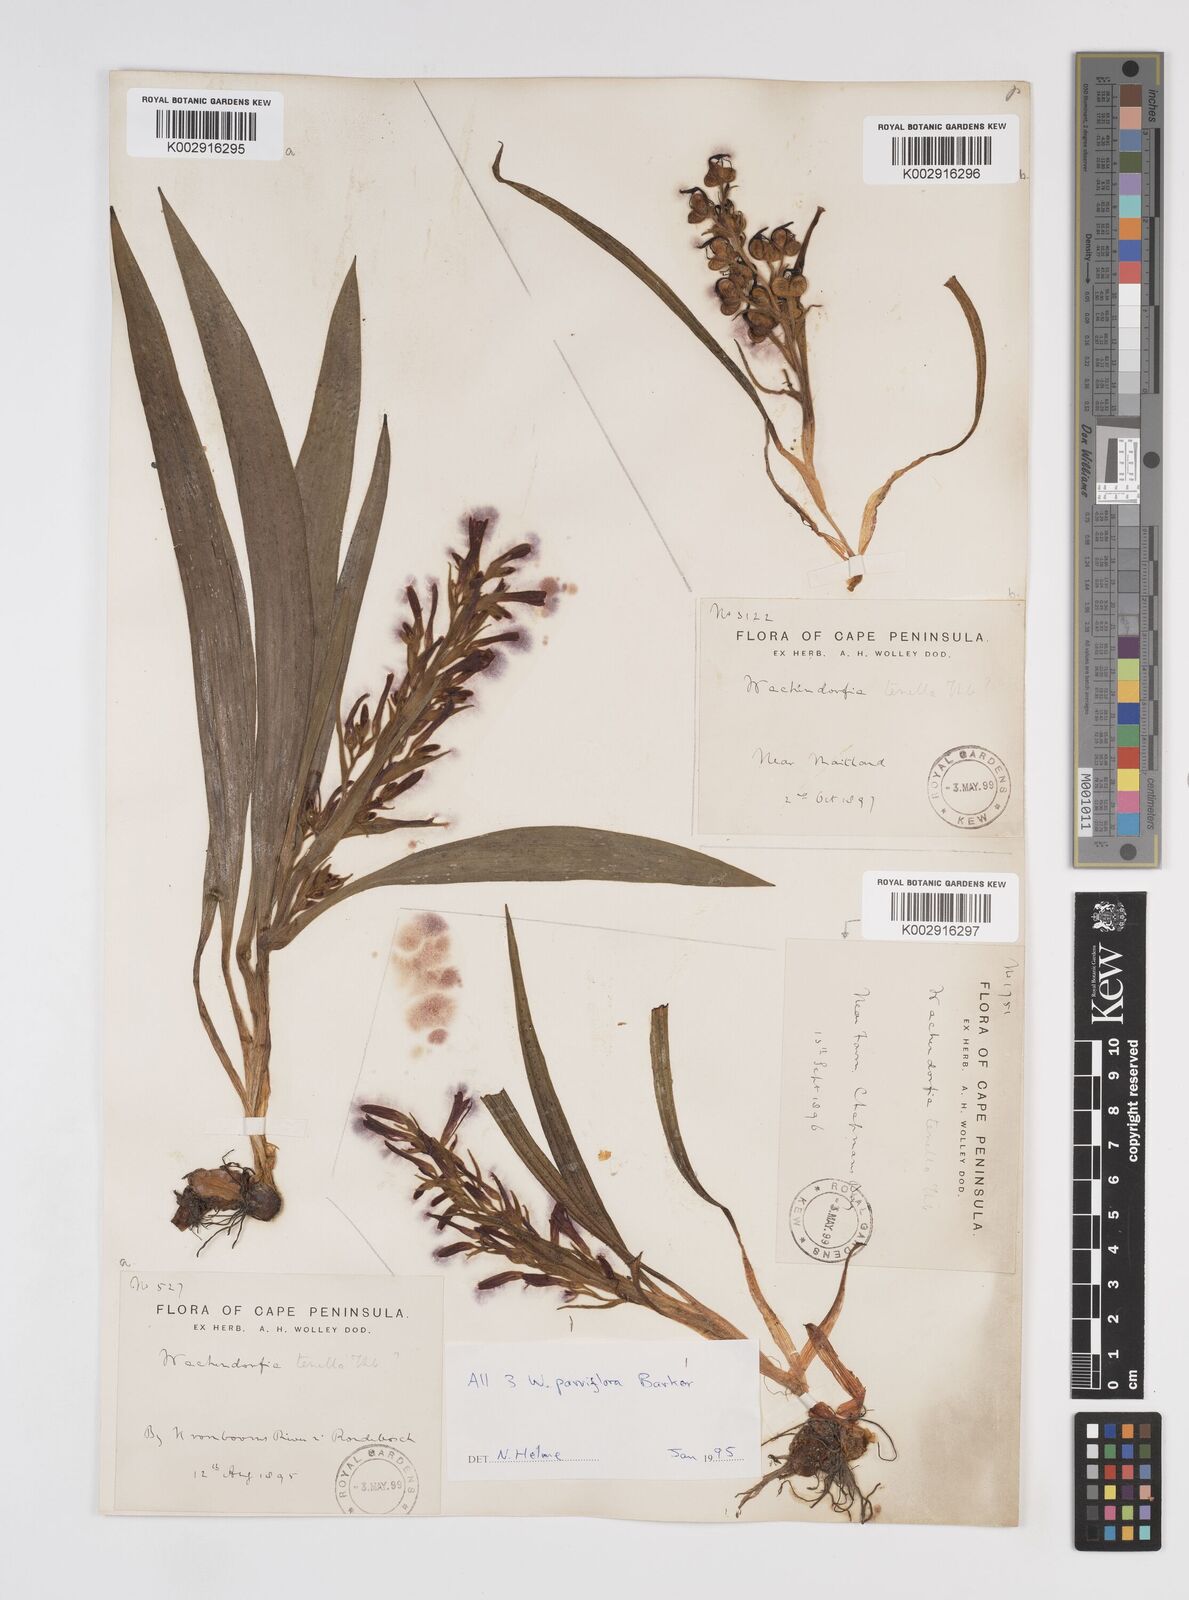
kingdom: Plantae
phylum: Tracheophyta
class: Liliopsida
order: Commelinales
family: Haemodoraceae
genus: Wachendorfia
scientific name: Wachendorfia multiflora
